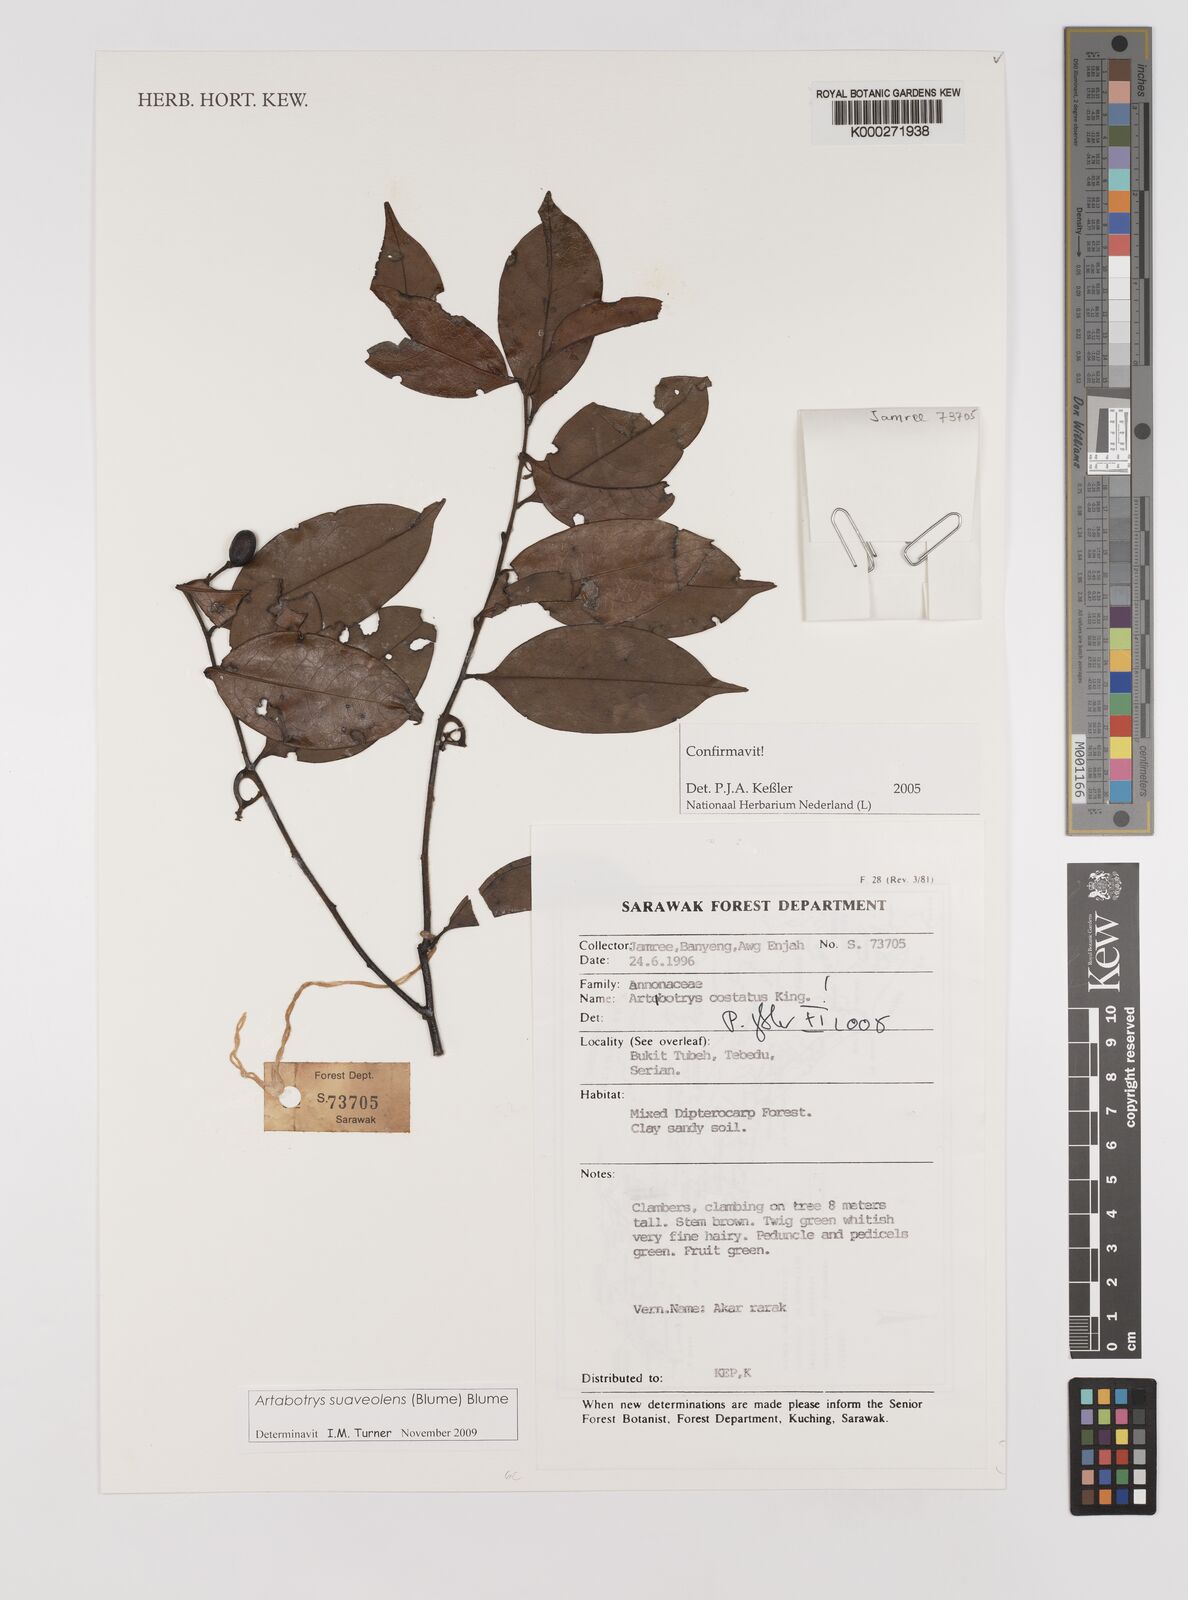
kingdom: Plantae
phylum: Tracheophyta
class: Magnoliopsida
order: Magnoliales
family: Annonaceae
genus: Artabotrys
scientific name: Artabotrys costatus
